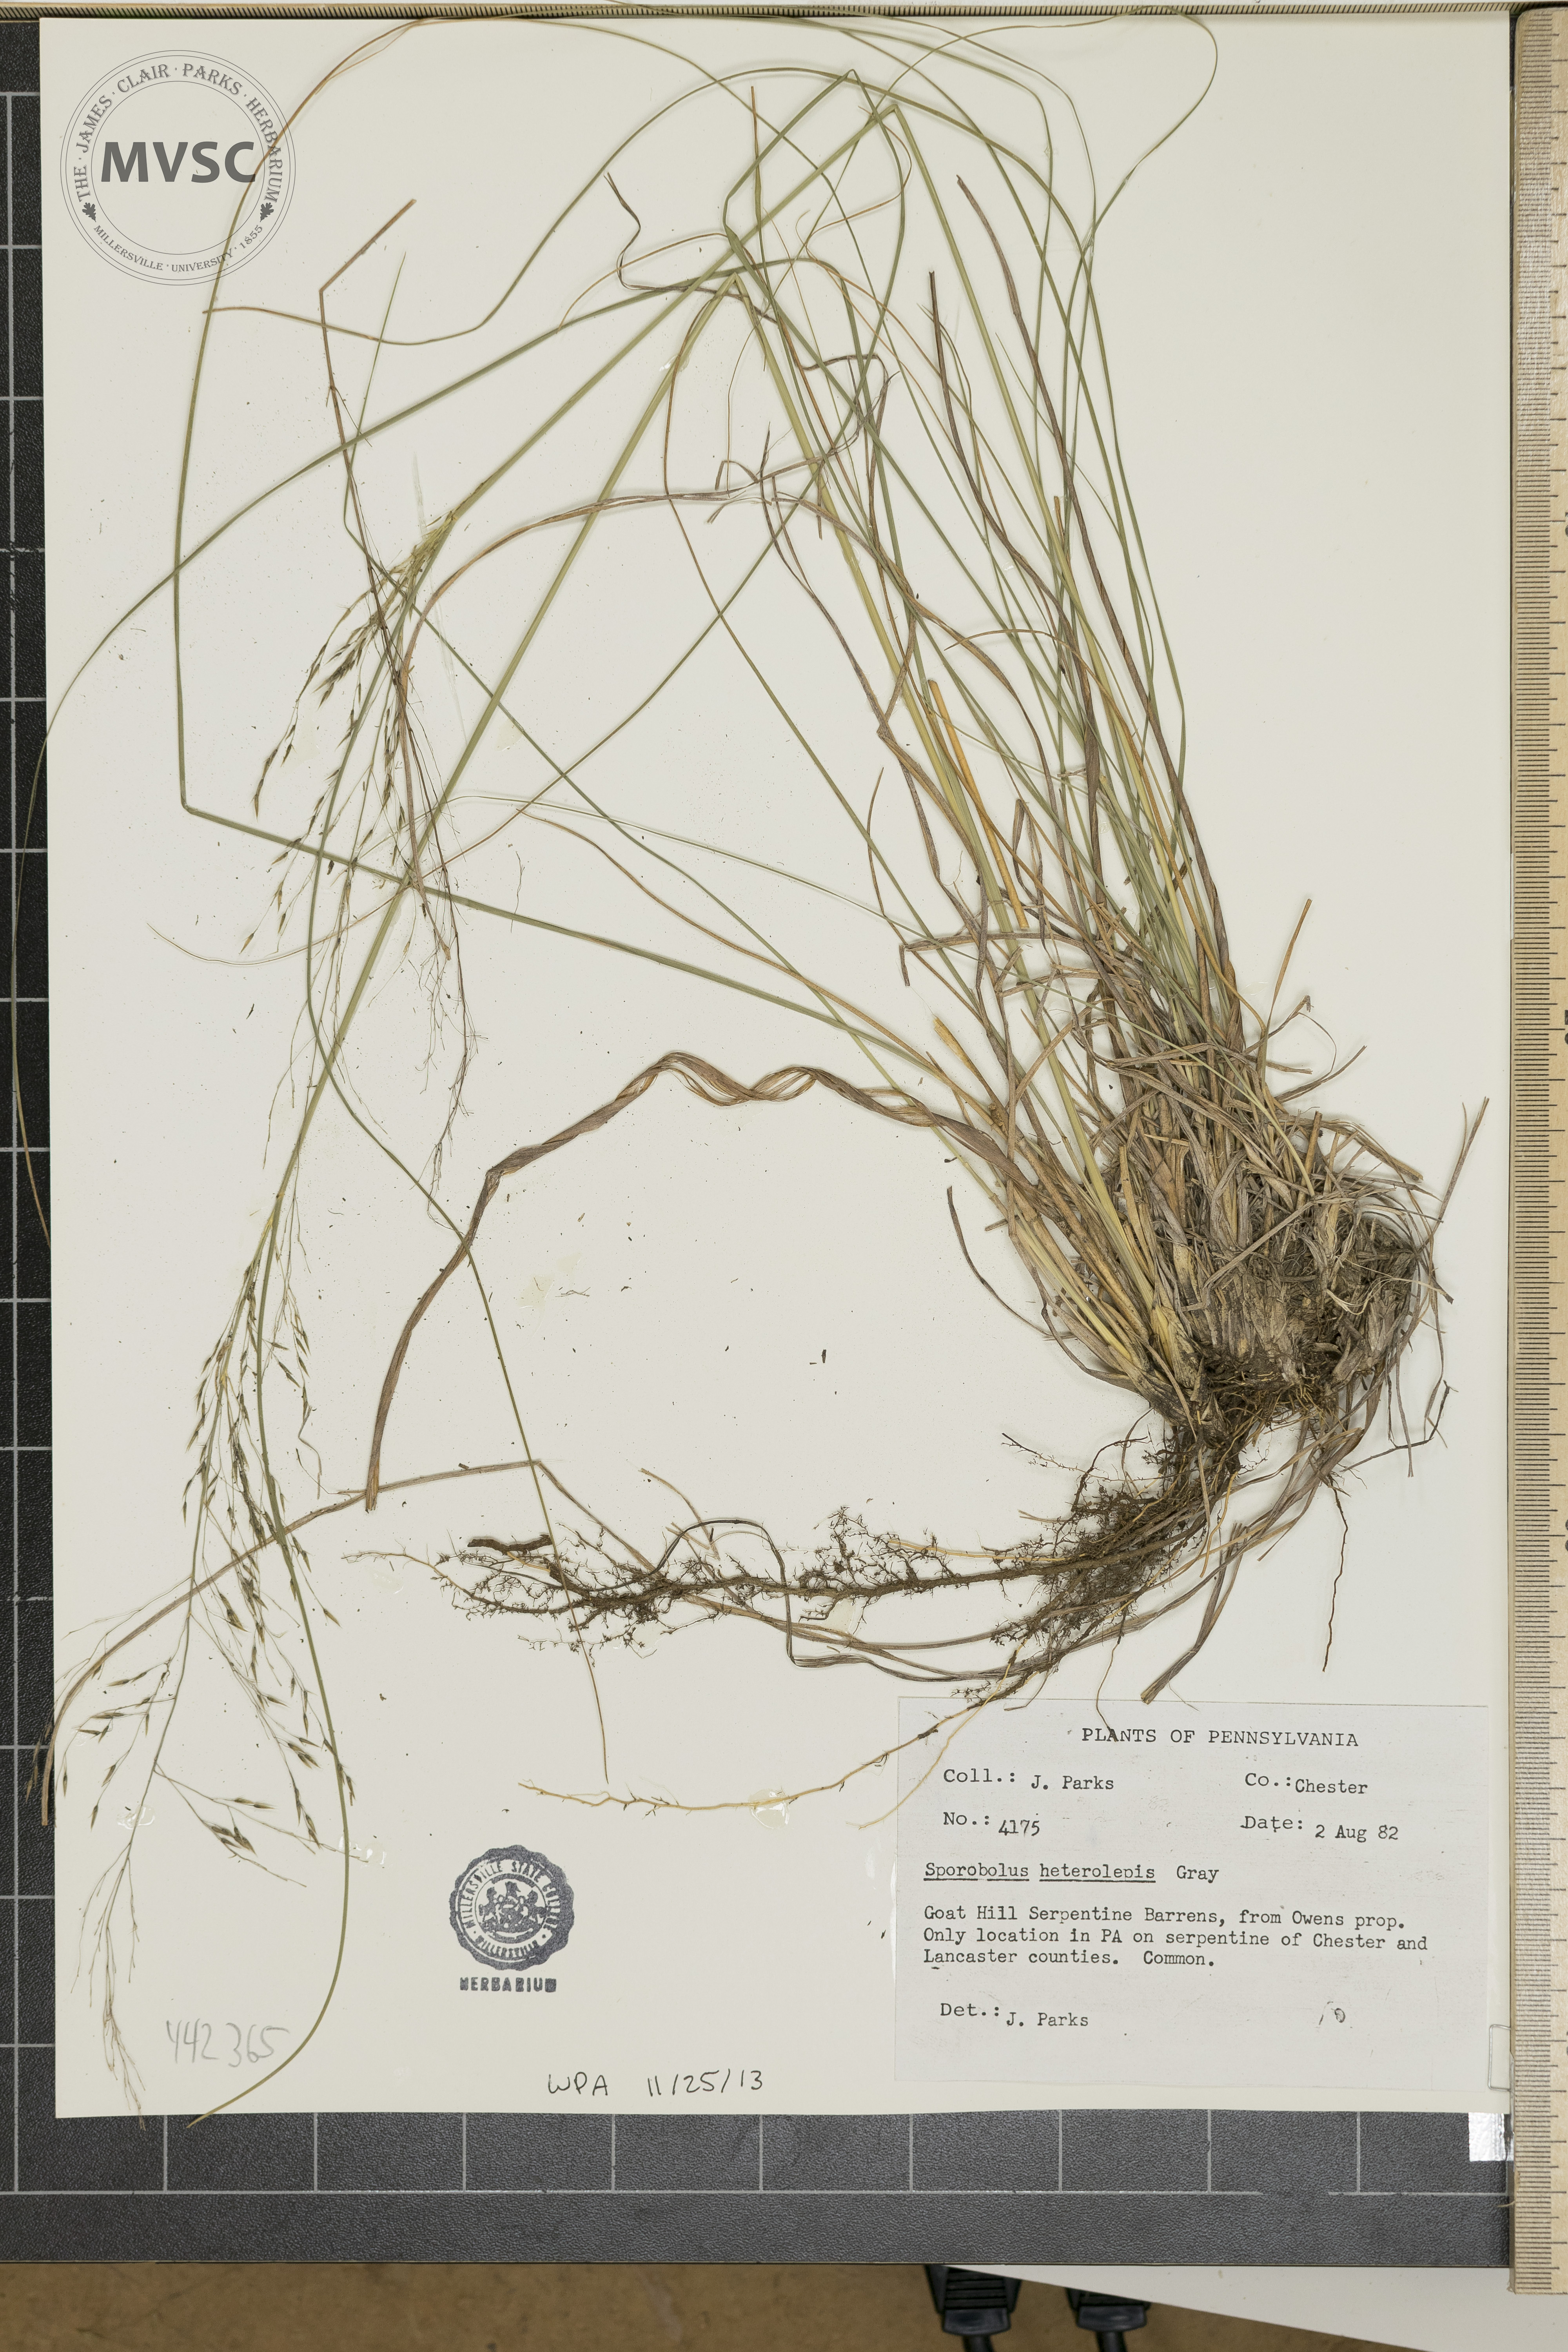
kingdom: Plantae
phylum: Tracheophyta
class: Liliopsida
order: Poales
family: Poaceae
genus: Sporobolus
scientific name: Sporobolus heterolepis
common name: Prairie dropseed
